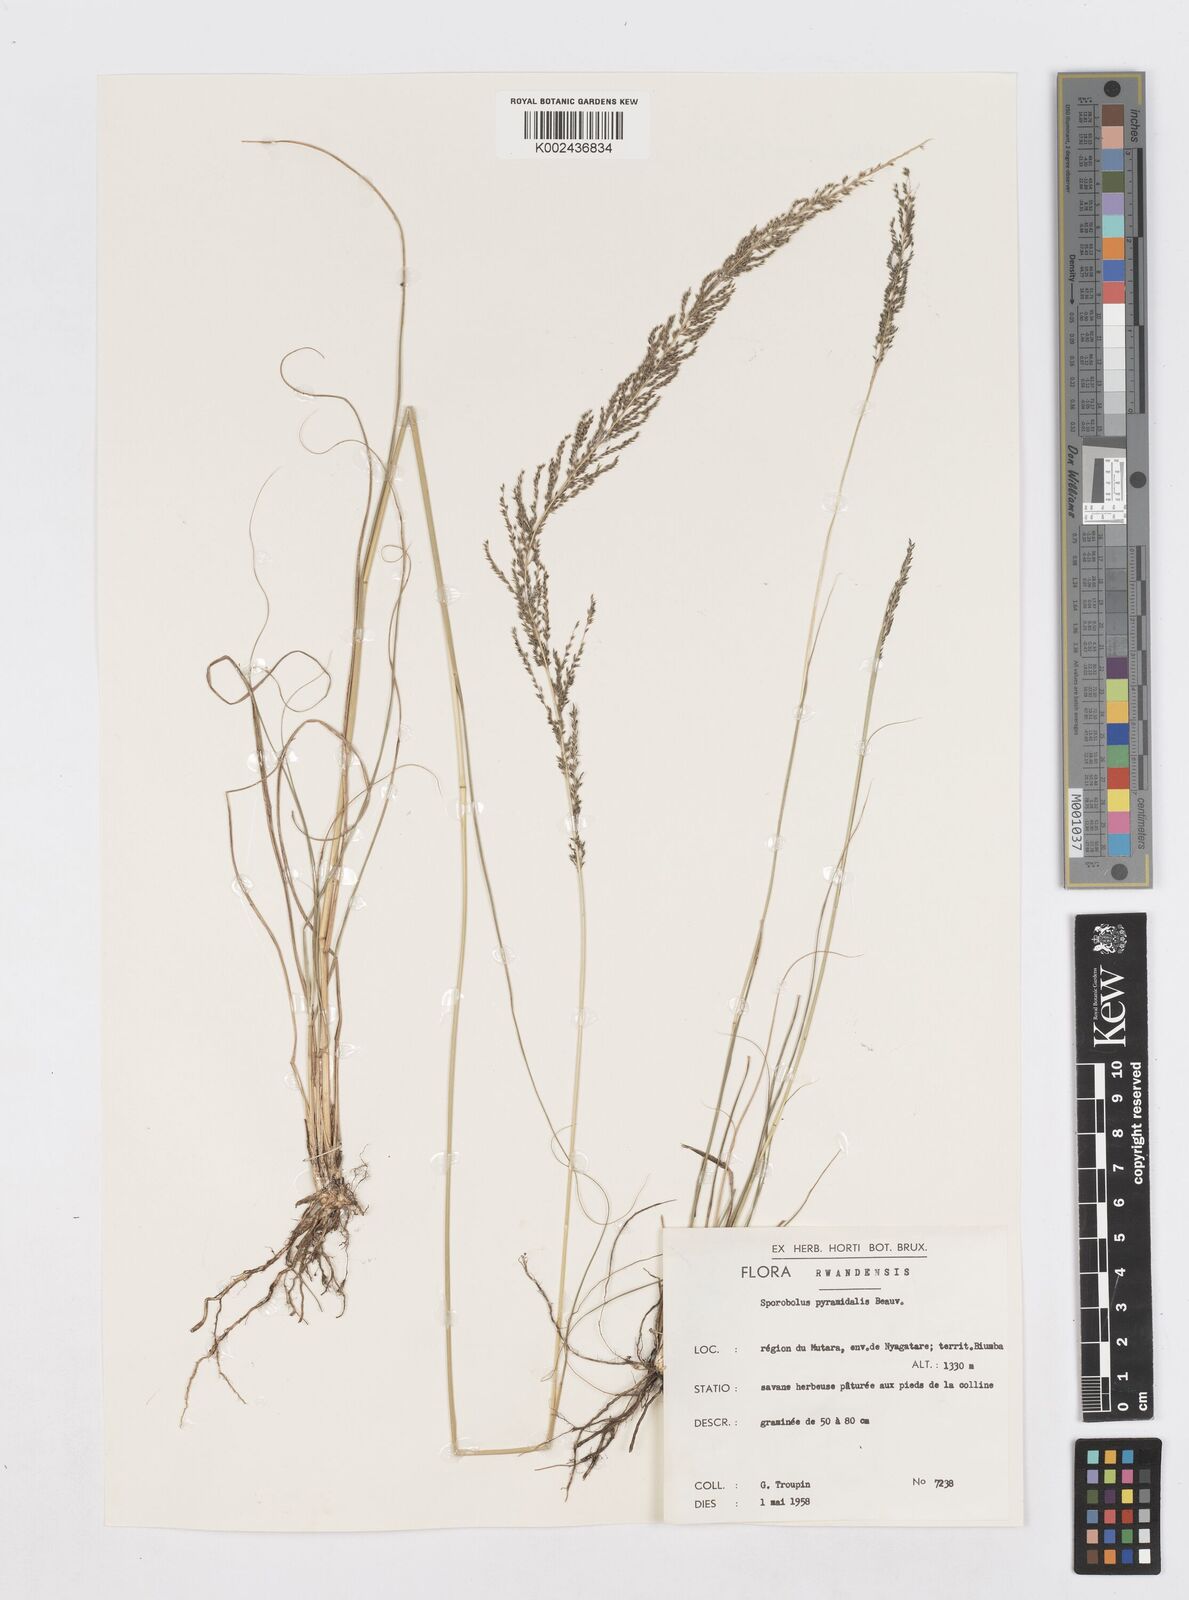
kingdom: Plantae
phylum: Tracheophyta
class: Liliopsida
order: Poales
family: Poaceae
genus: Sporobolus
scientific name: Sporobolus pyramidalis
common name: West indian dropseed
